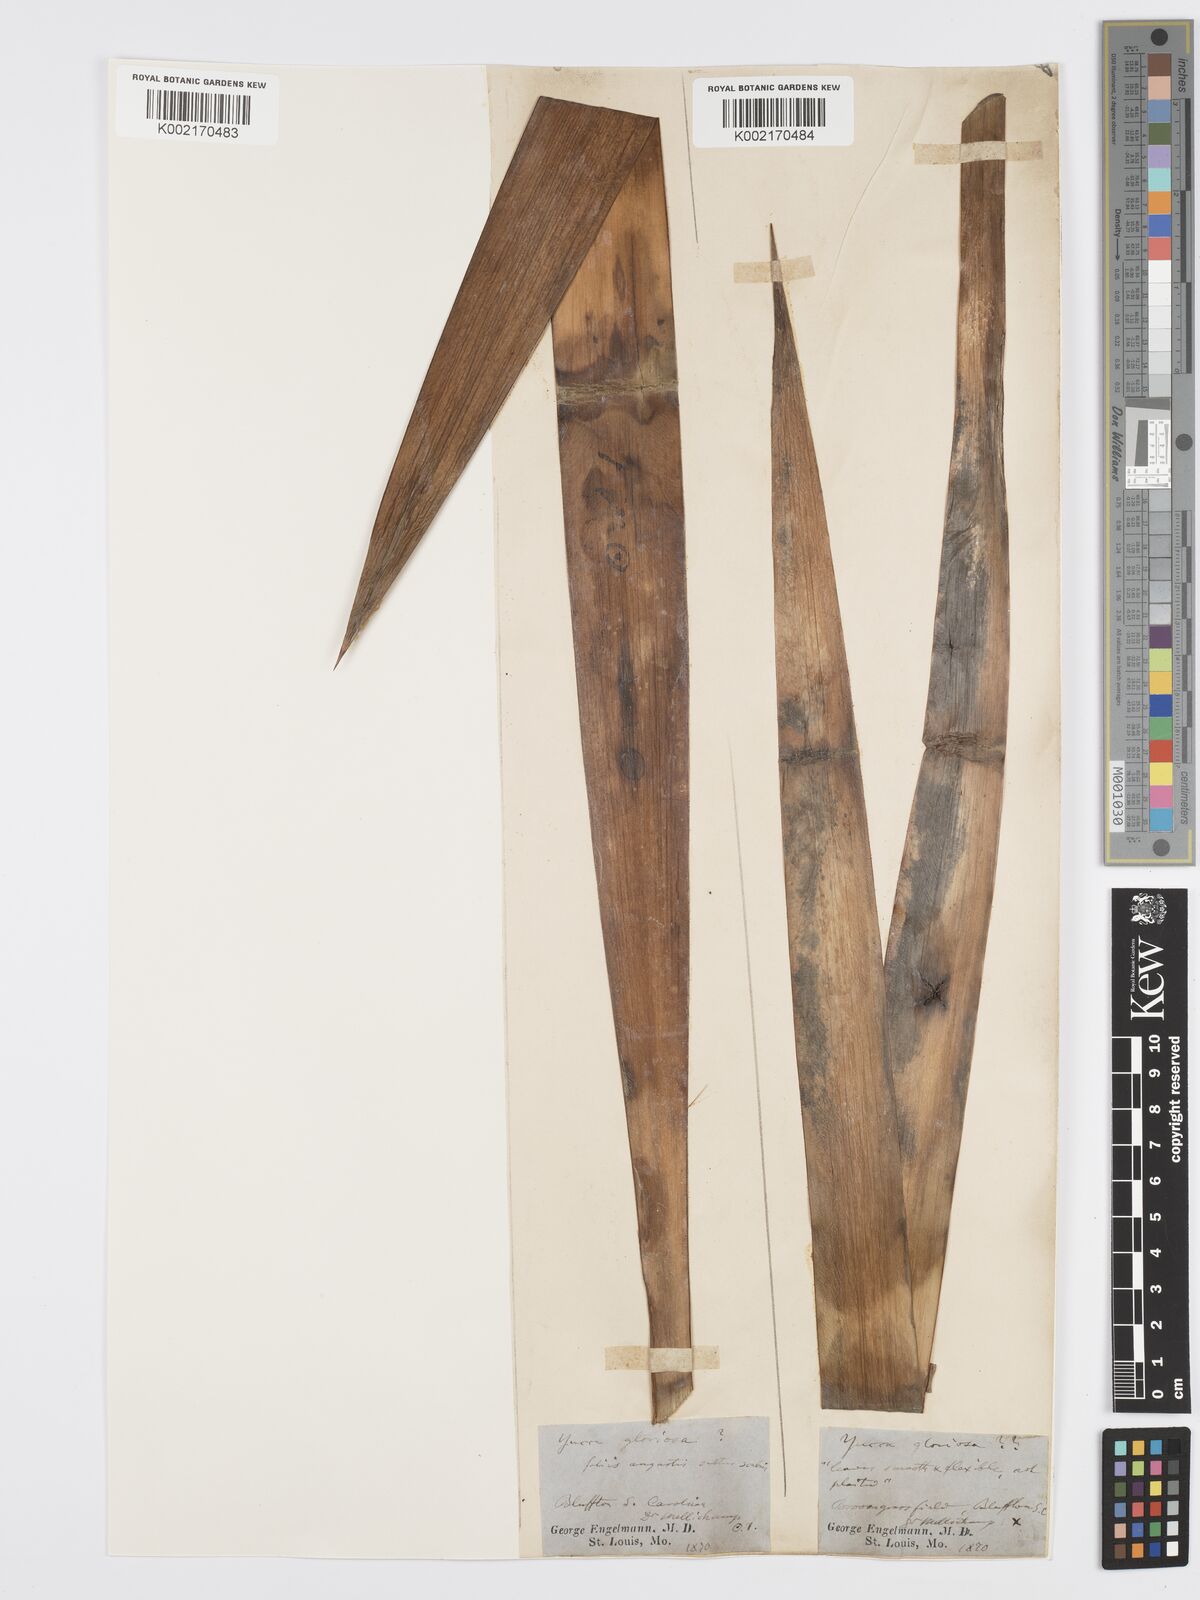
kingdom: Plantae
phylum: Tracheophyta
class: Liliopsida
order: Asparagales
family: Asparagaceae
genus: Yucca
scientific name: Yucca gloriosa
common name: Spanish-dagger
